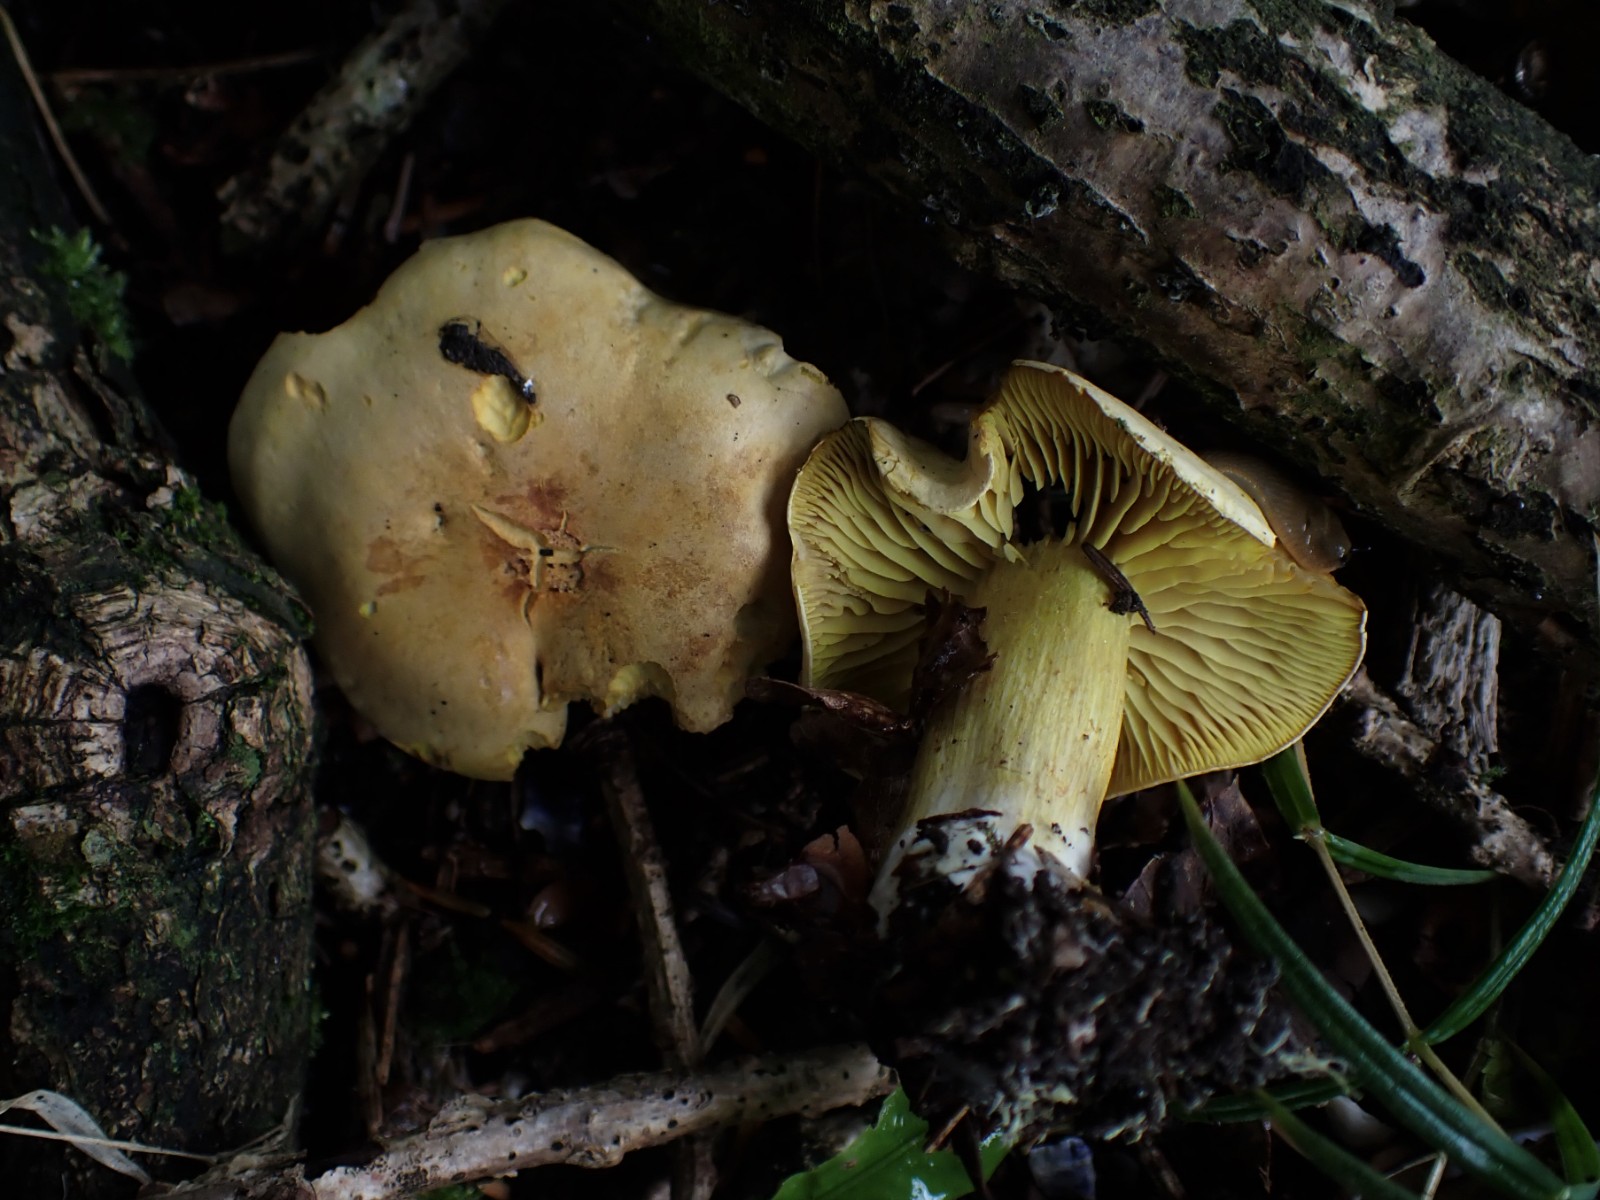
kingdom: Fungi
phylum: Basidiomycota
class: Agaricomycetes
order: Agaricales
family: Tricholomataceae
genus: Tricholoma
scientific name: Tricholoma sulphureum
